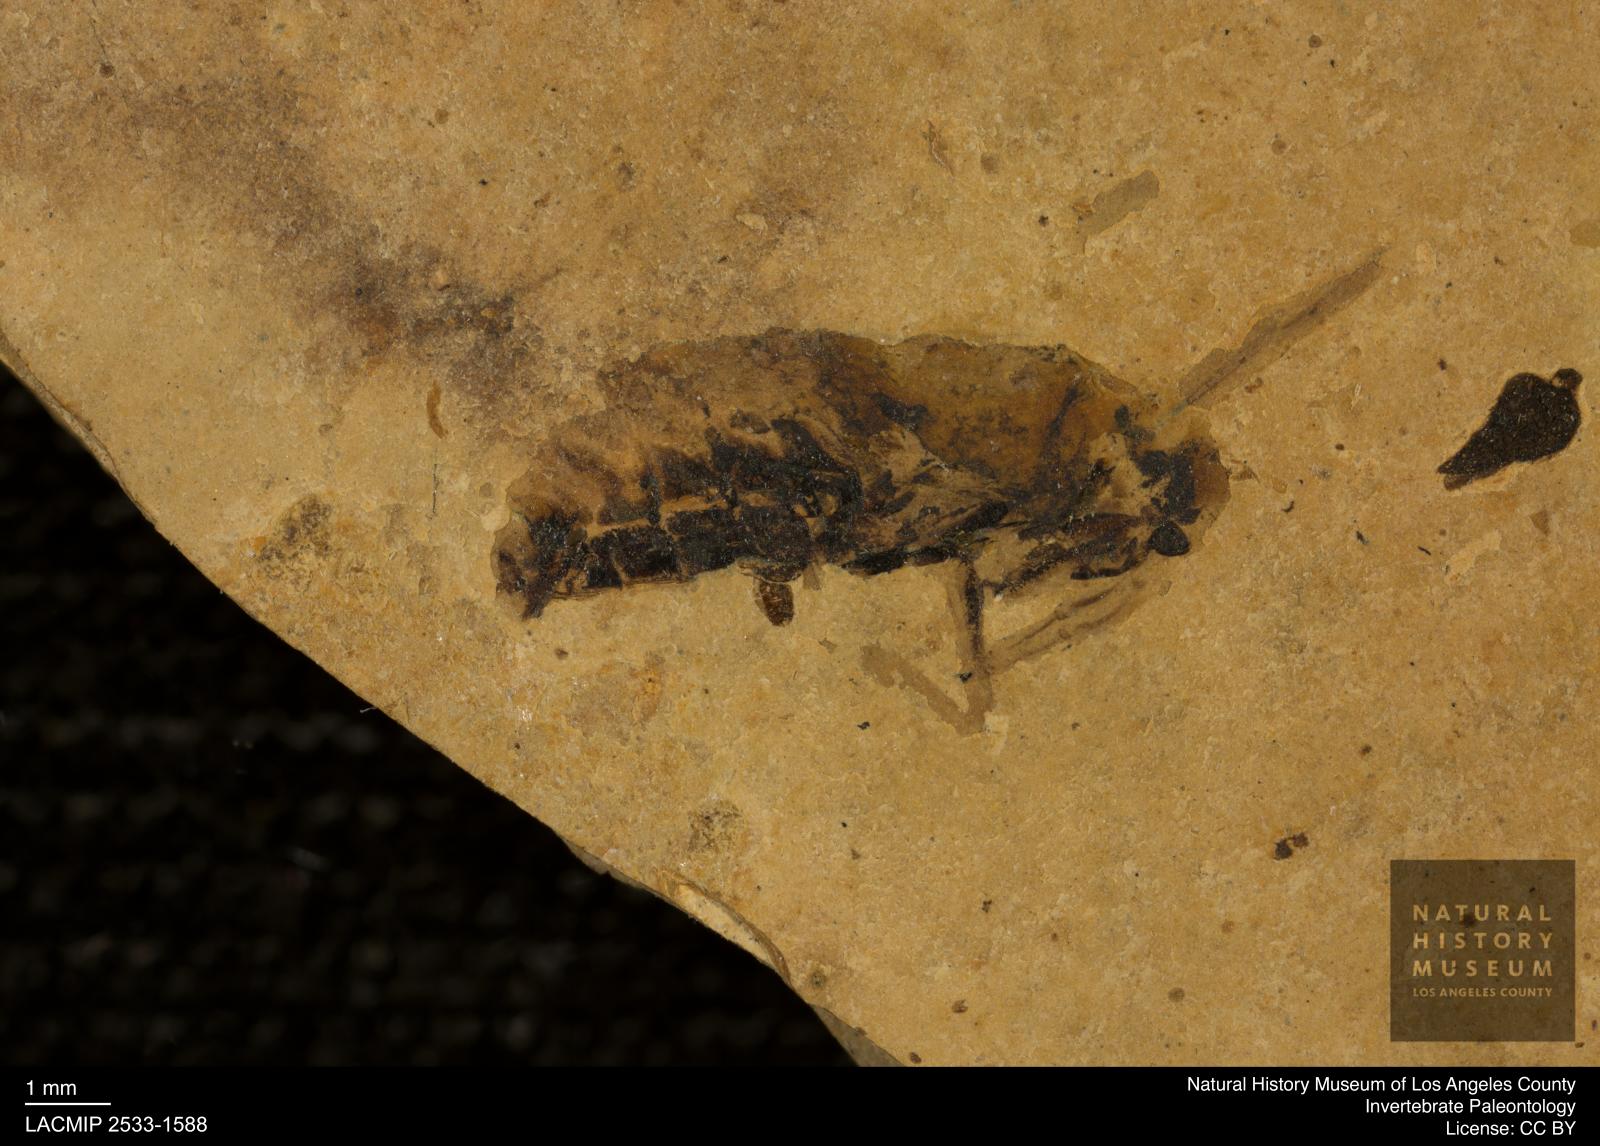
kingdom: Animalia
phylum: Arthropoda
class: Insecta
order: Hemiptera
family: Notonectidae
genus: Notonecta
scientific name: Notonecta
